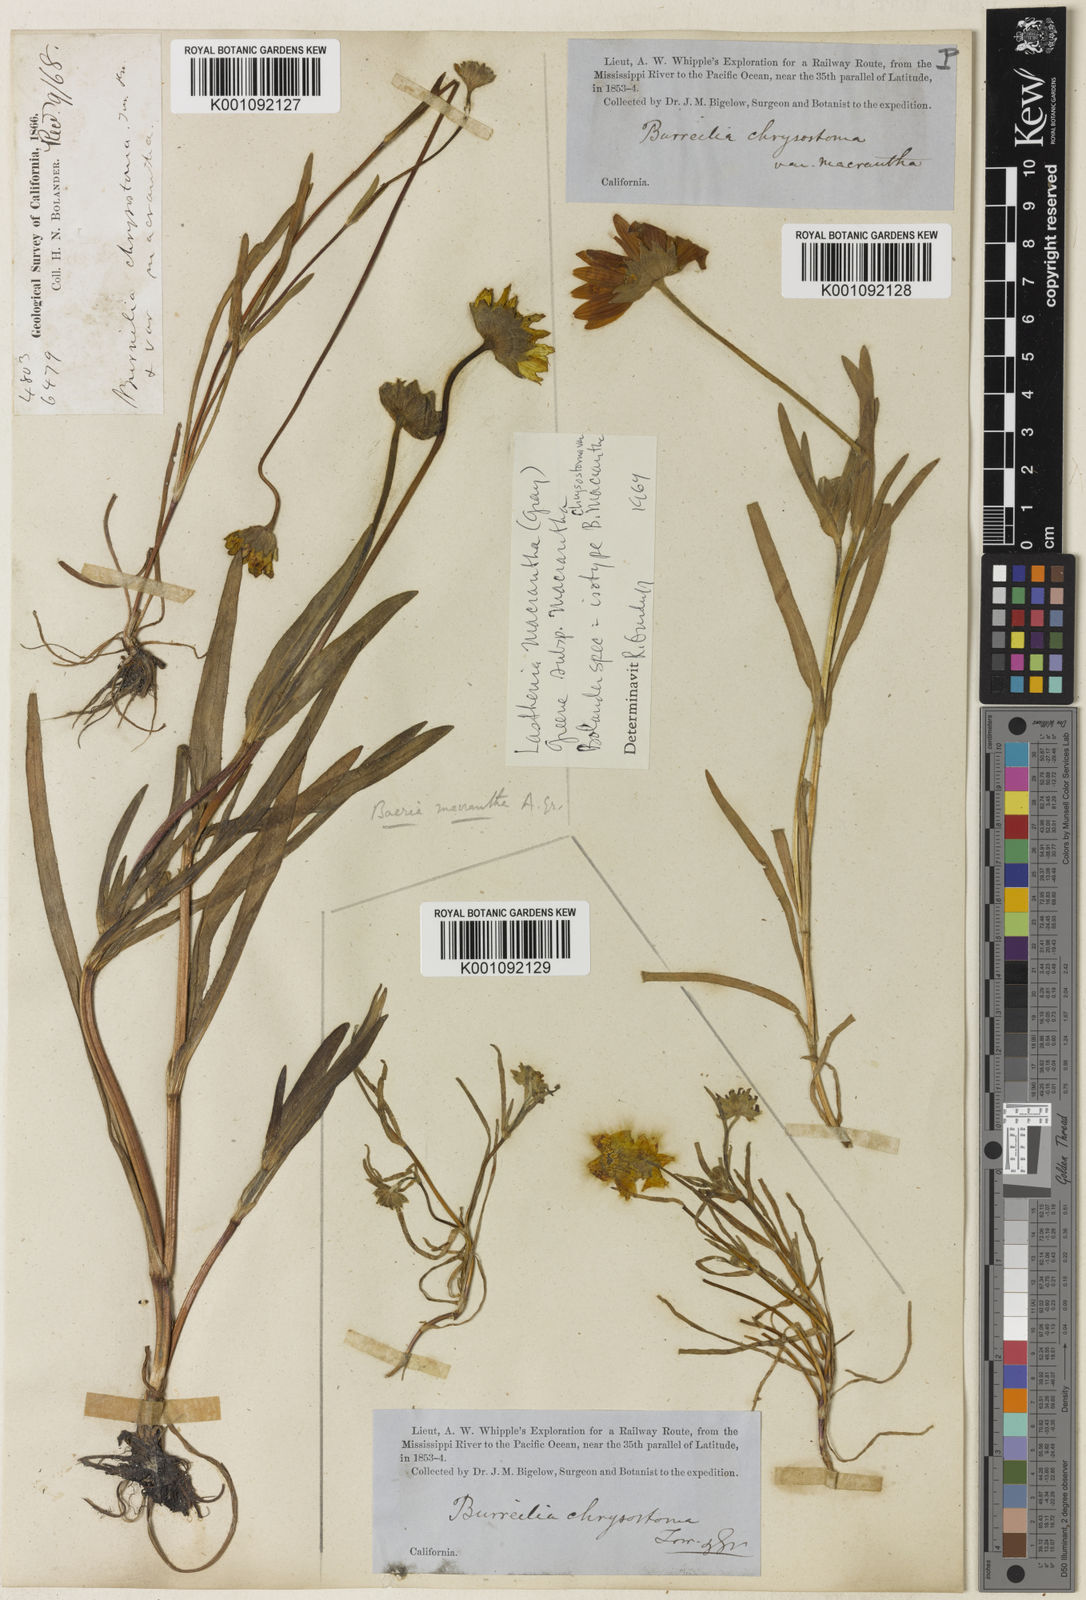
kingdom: Plantae
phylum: Tracheophyta
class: Magnoliopsida
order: Asterales
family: Asteraceae
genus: Lasthenia
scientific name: Lasthenia californica
